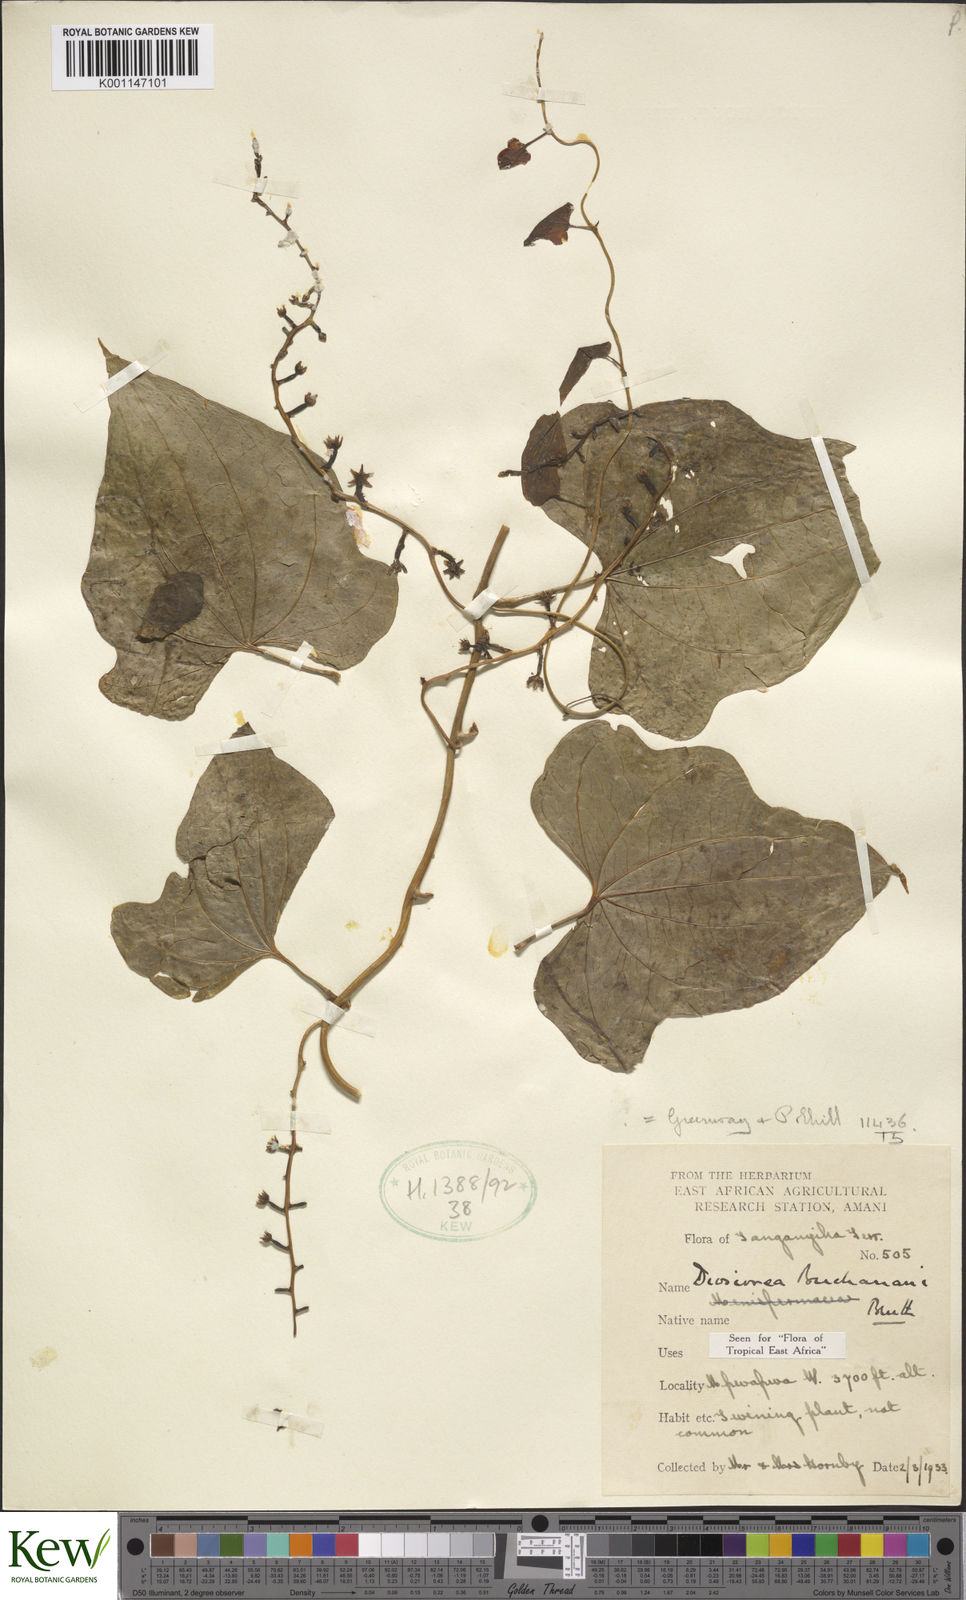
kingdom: Plantae
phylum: Tracheophyta
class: Liliopsida
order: Dioscoreales
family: Dioscoreaceae
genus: Dioscorea
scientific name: Dioscorea buchananii
